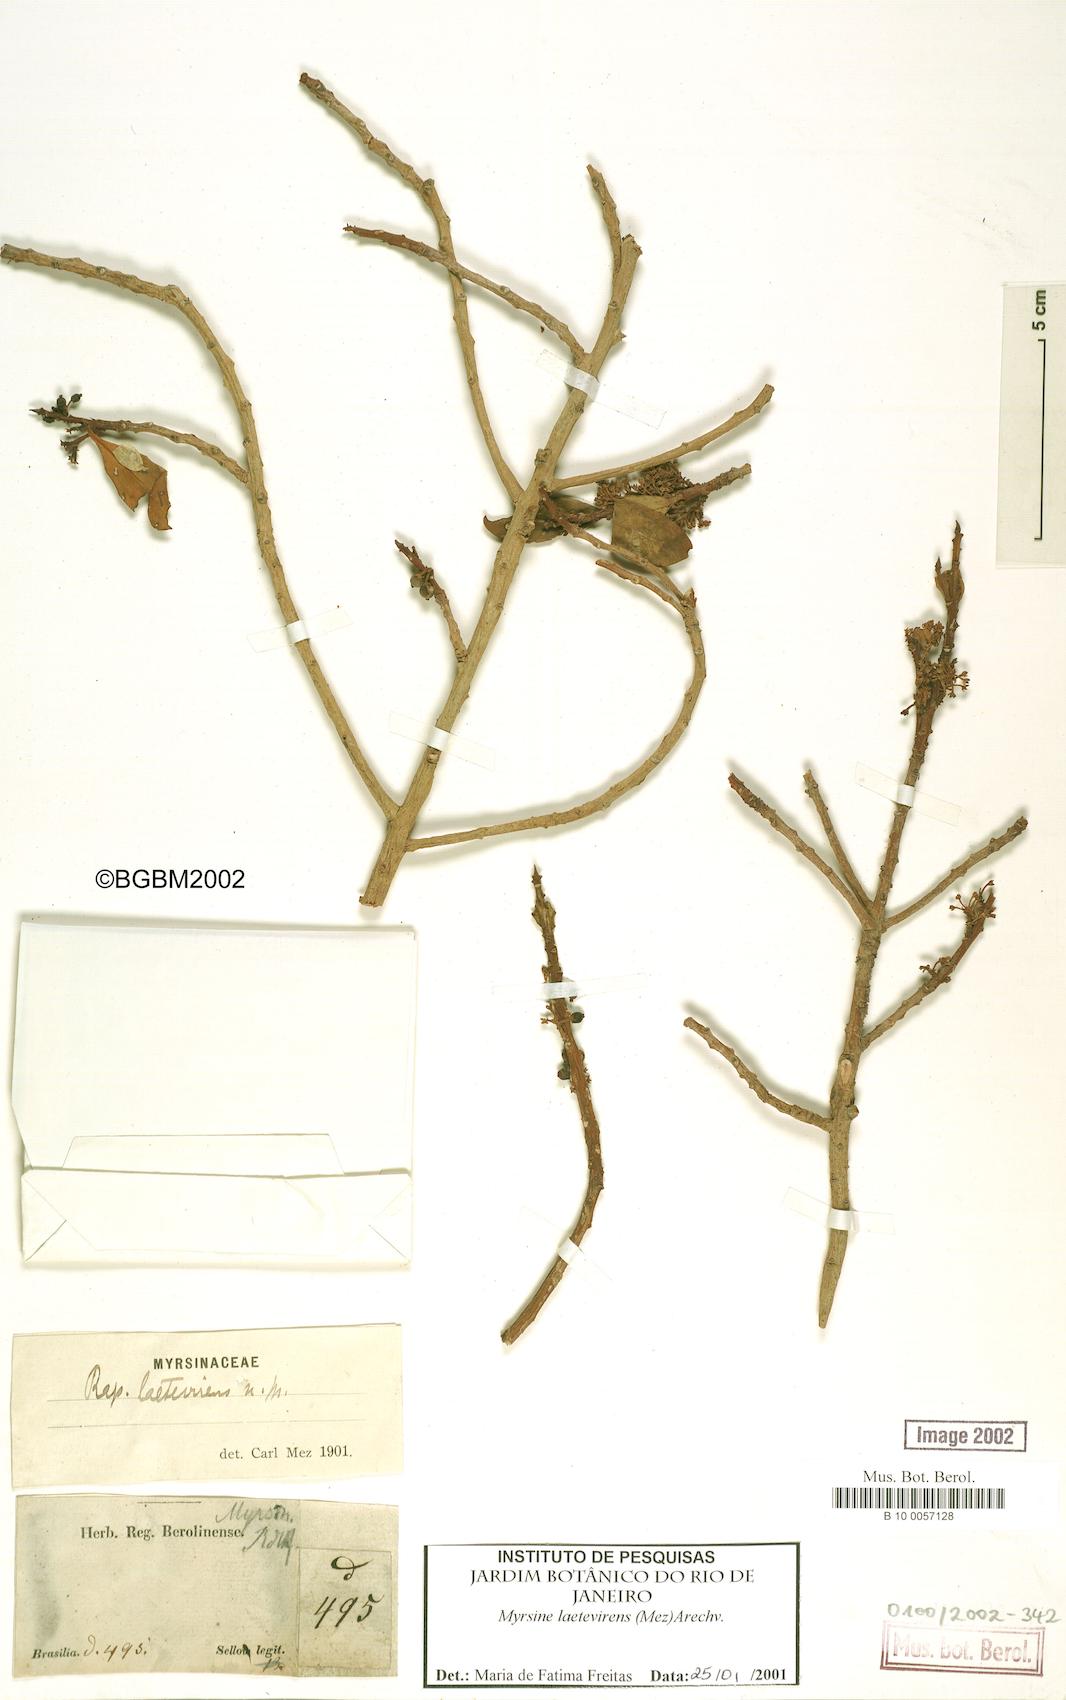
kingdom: Plantae
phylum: Tracheophyta
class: Magnoliopsida
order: Ericales
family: Primulaceae
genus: Myrsine
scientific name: Myrsine laetevirens
